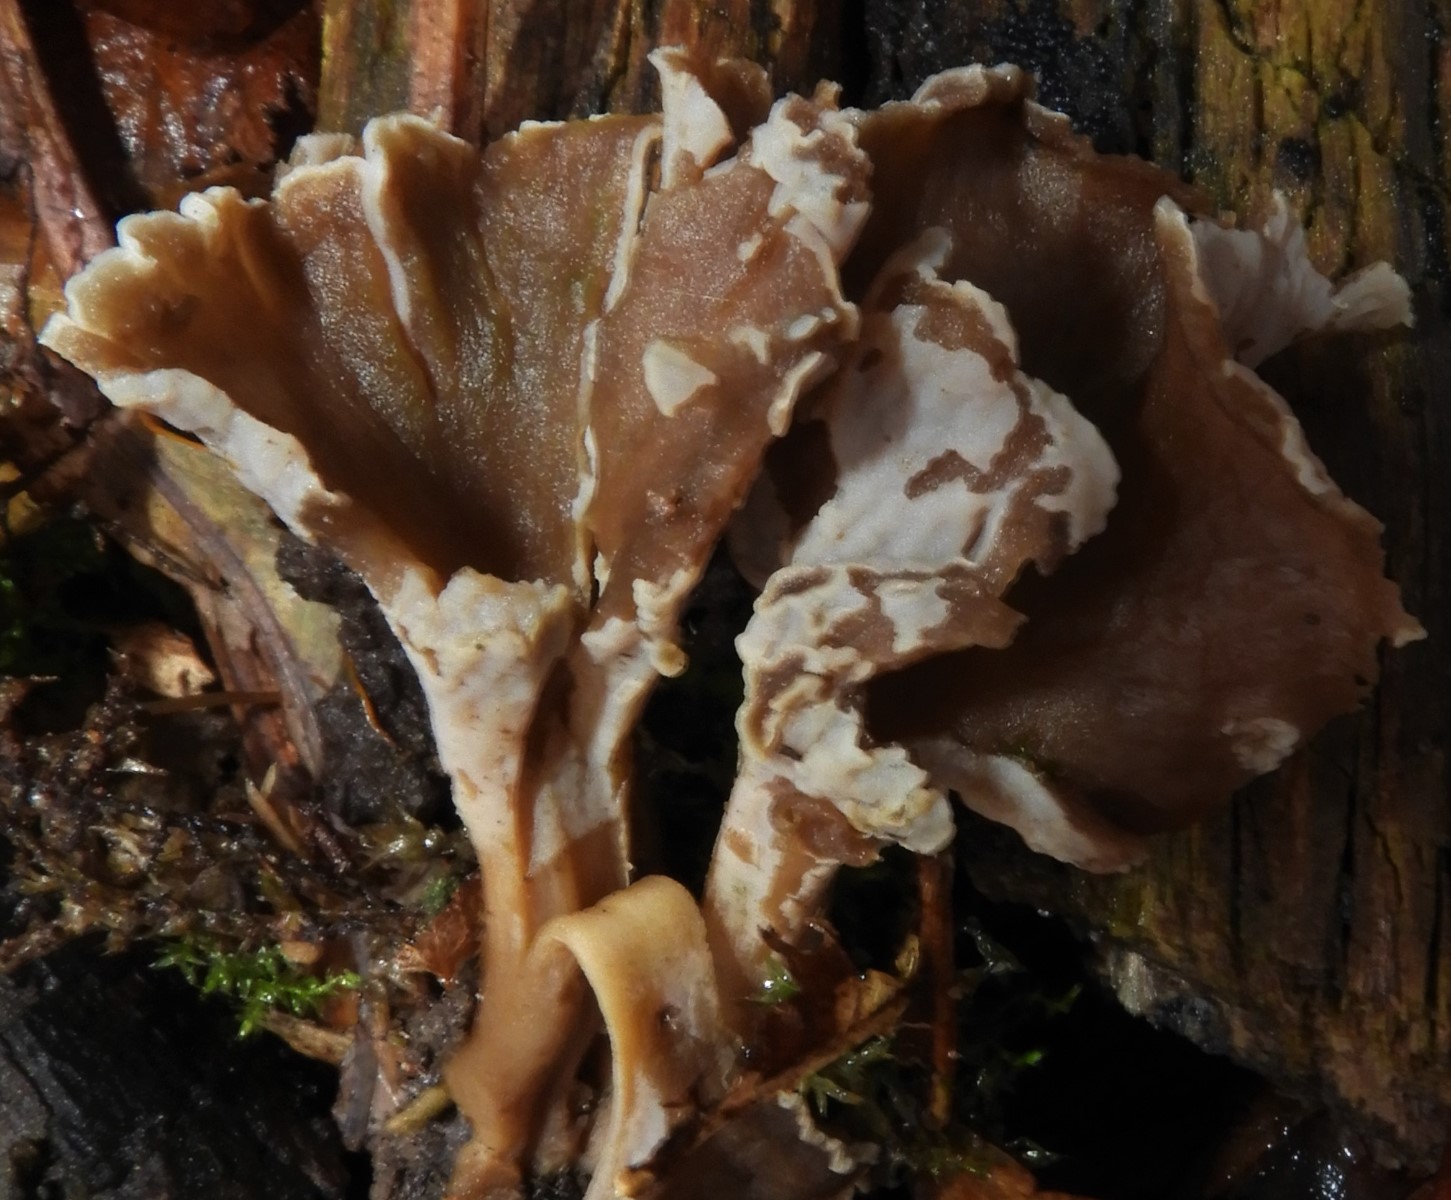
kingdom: Fungi
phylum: Basidiomycota
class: Agaricomycetes
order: Cantharellales
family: Hydnaceae
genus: Craterellus
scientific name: Craterellus undulatus
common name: liden kantarel
